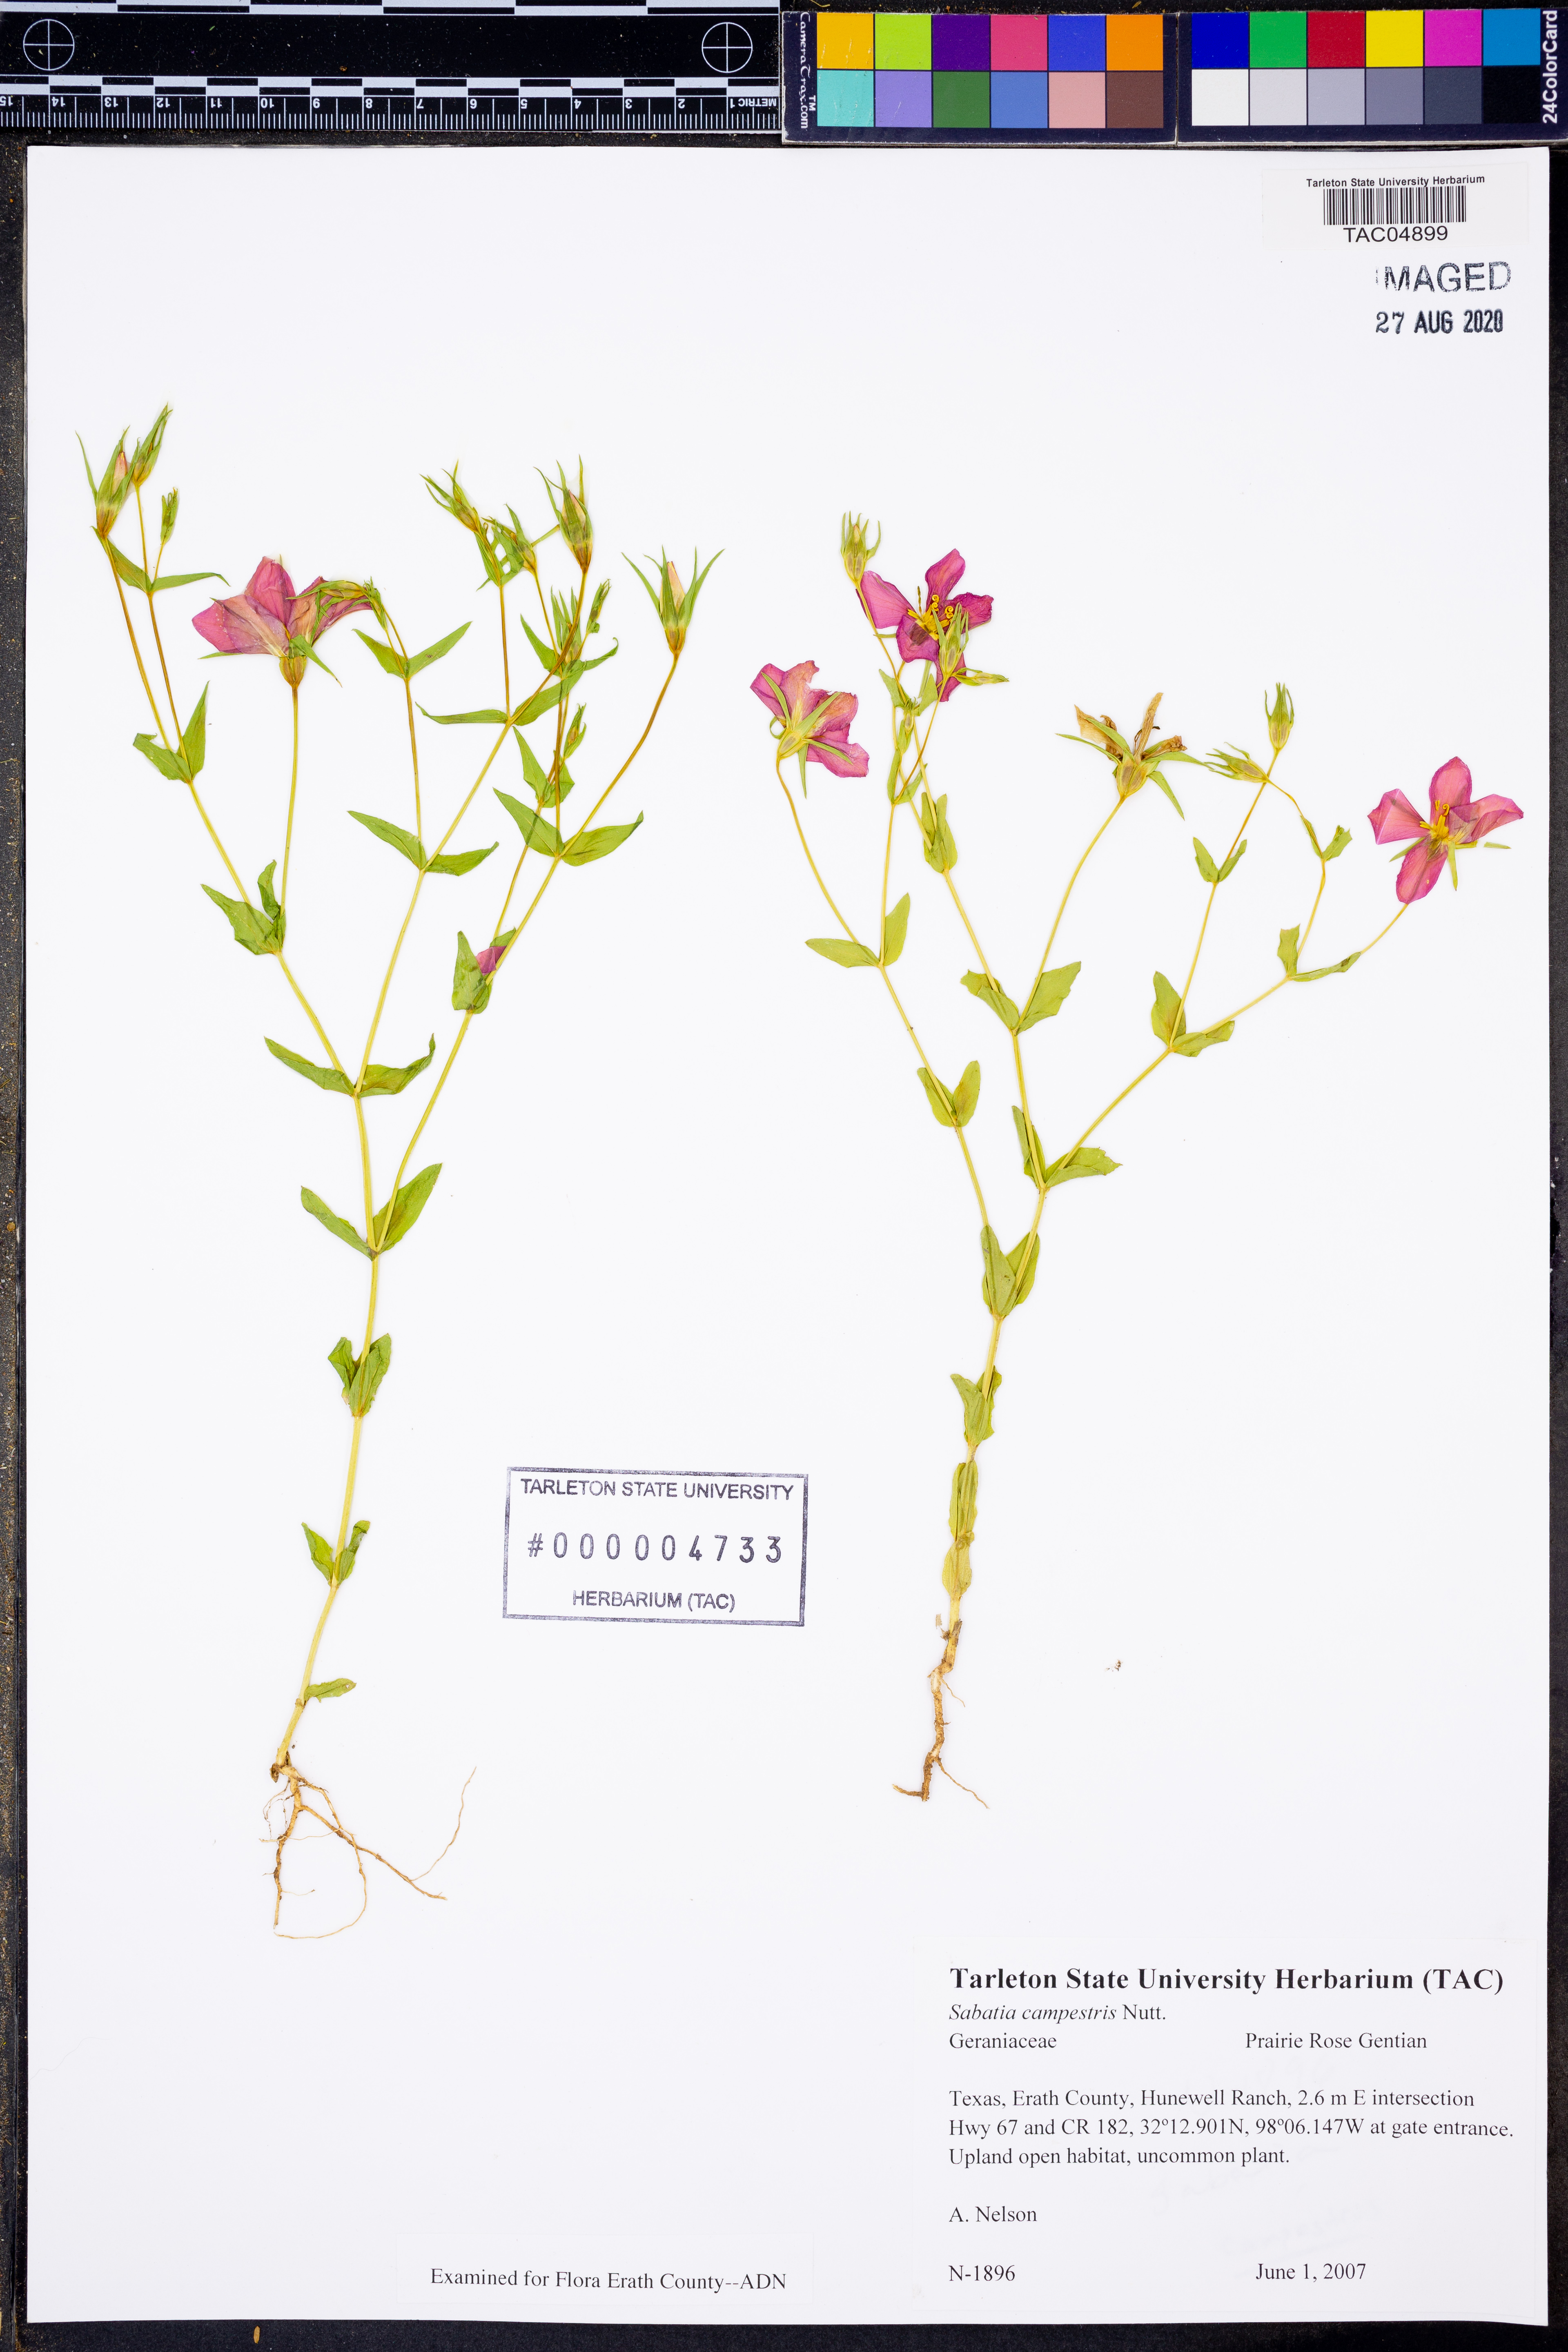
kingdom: Plantae
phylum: Tracheophyta
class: Magnoliopsida
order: Gentianales
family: Gentianaceae
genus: Sabatia
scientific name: Sabatia campestris
